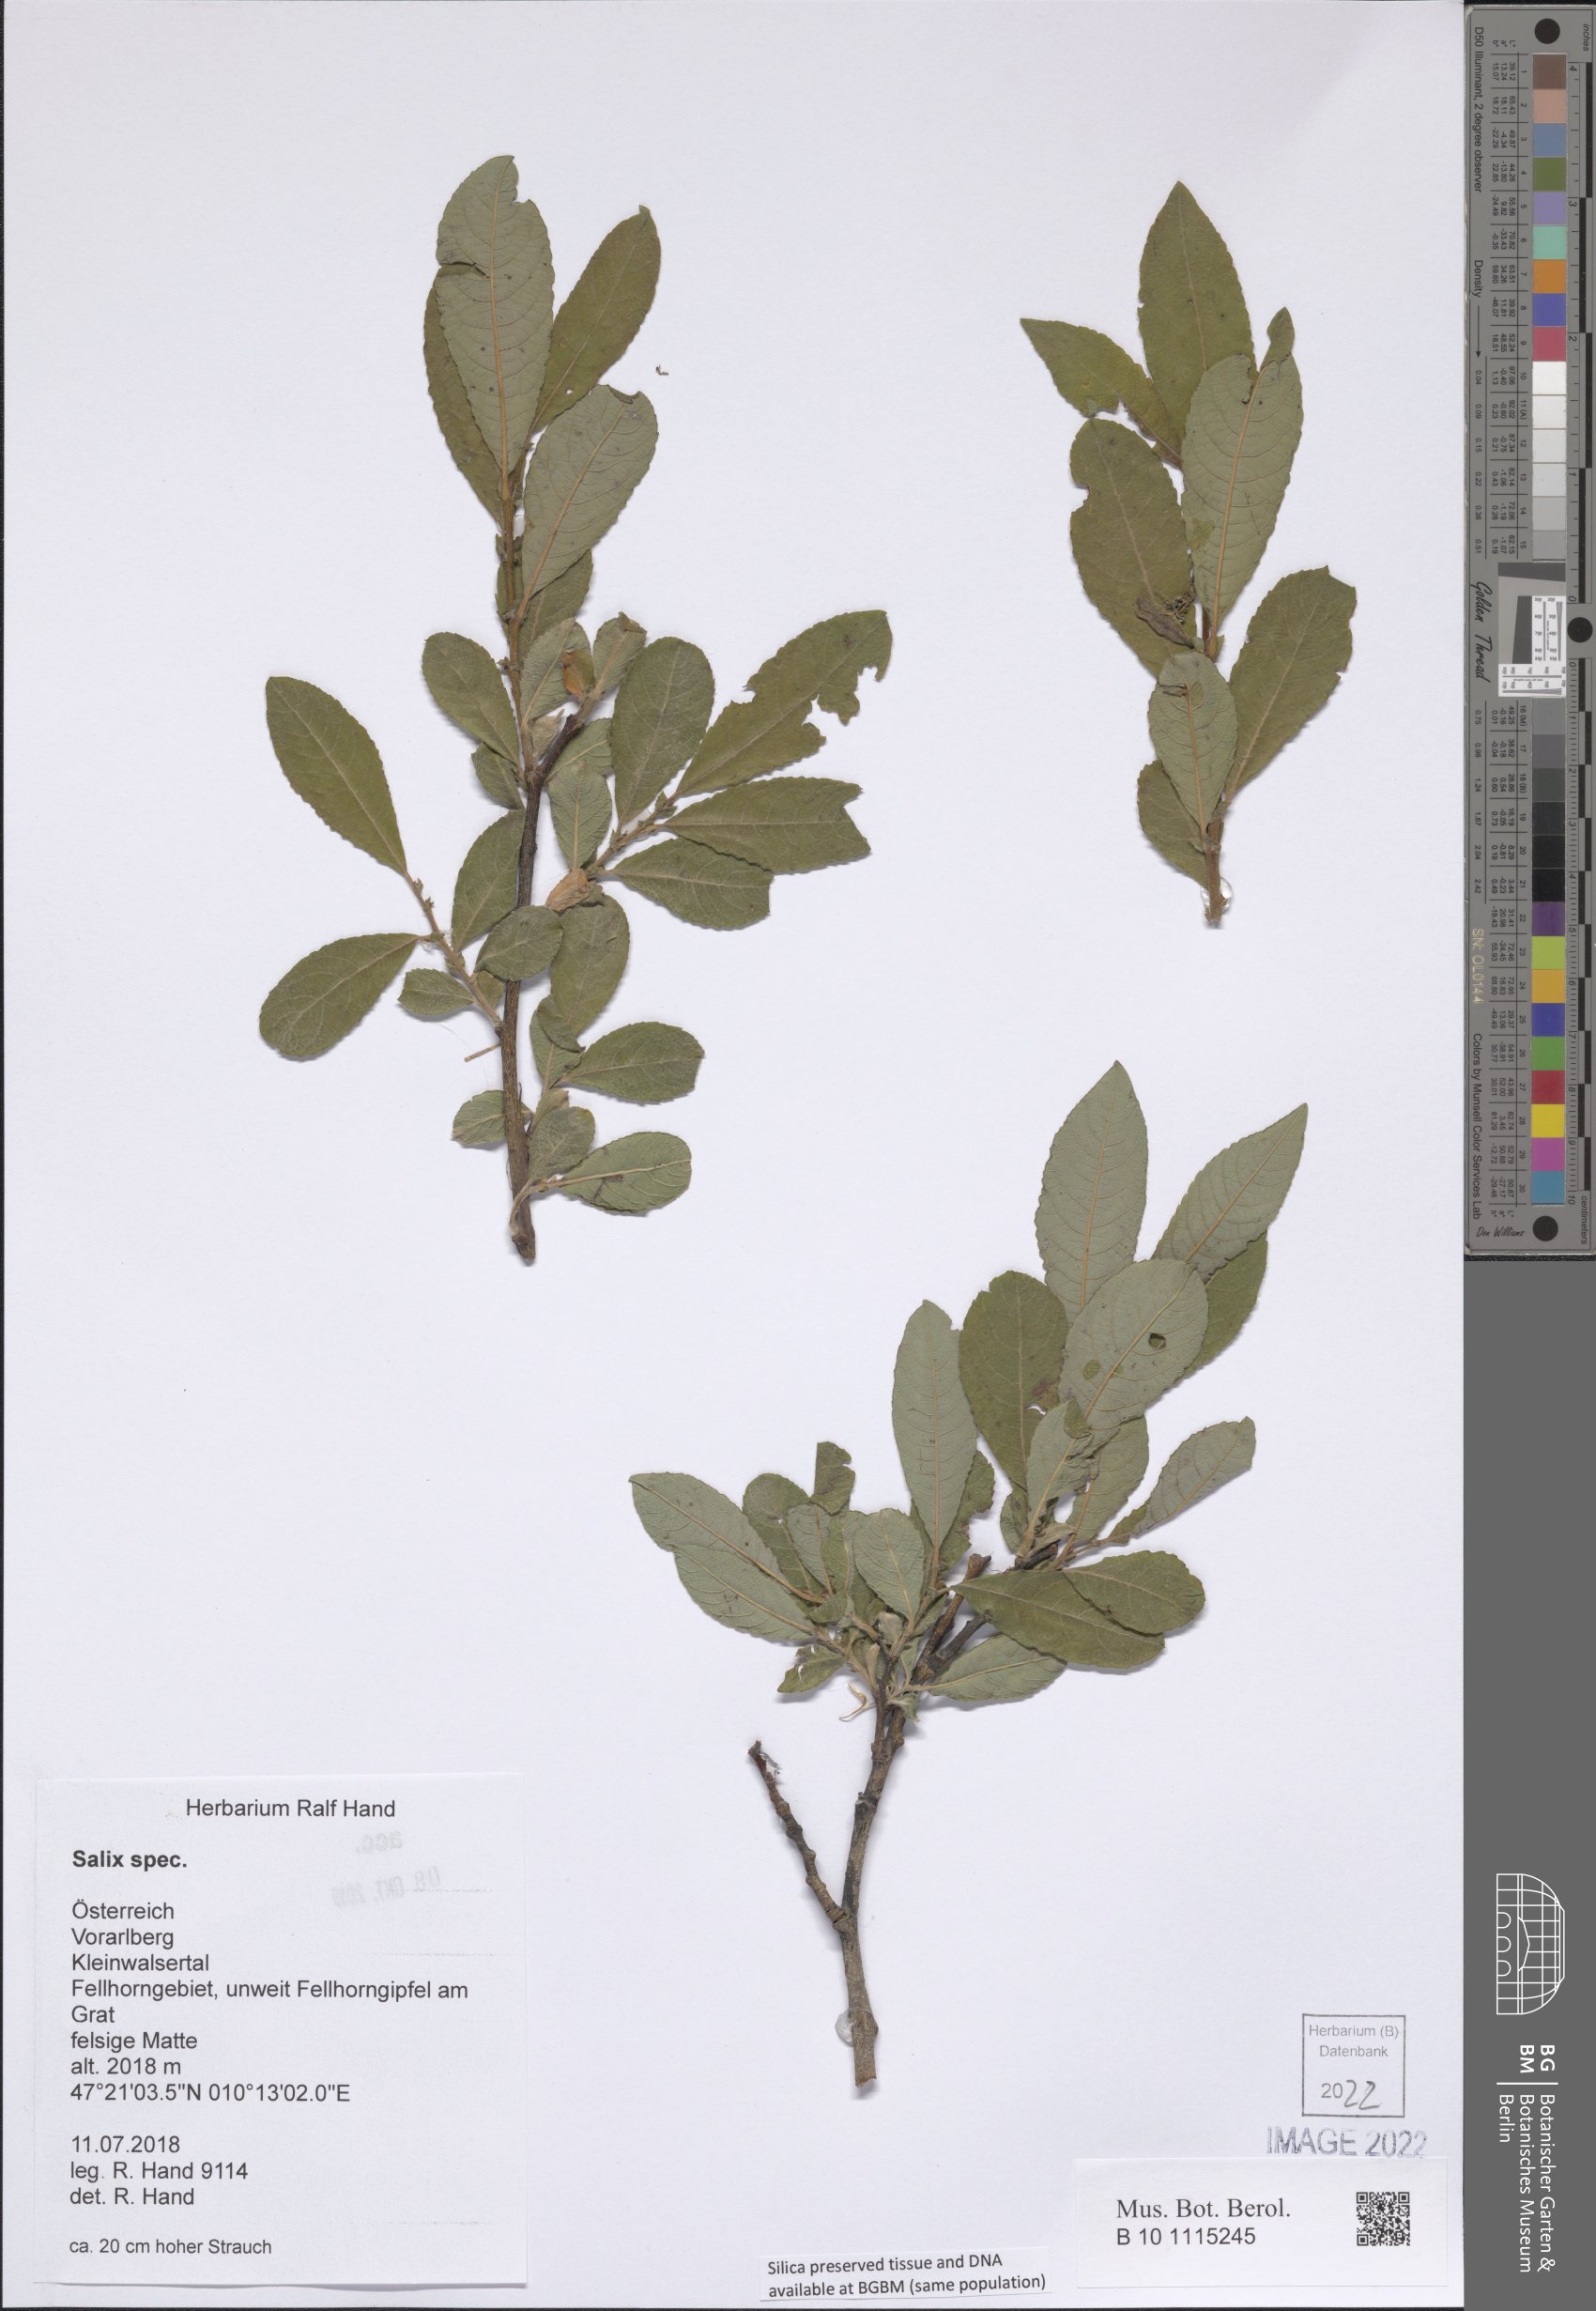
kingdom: Plantae
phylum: Tracheophyta
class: Magnoliopsida
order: Malpighiales
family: Salicaceae
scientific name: Salicaceae
